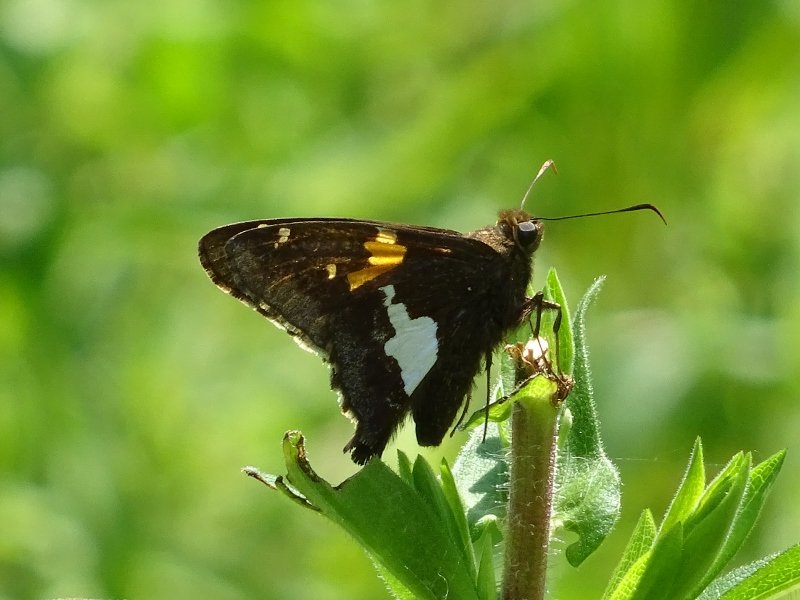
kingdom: Animalia
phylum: Arthropoda
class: Insecta
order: Lepidoptera
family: Hesperiidae
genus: Epargyreus
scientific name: Epargyreus clarus
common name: Silver-spotted Skipper
